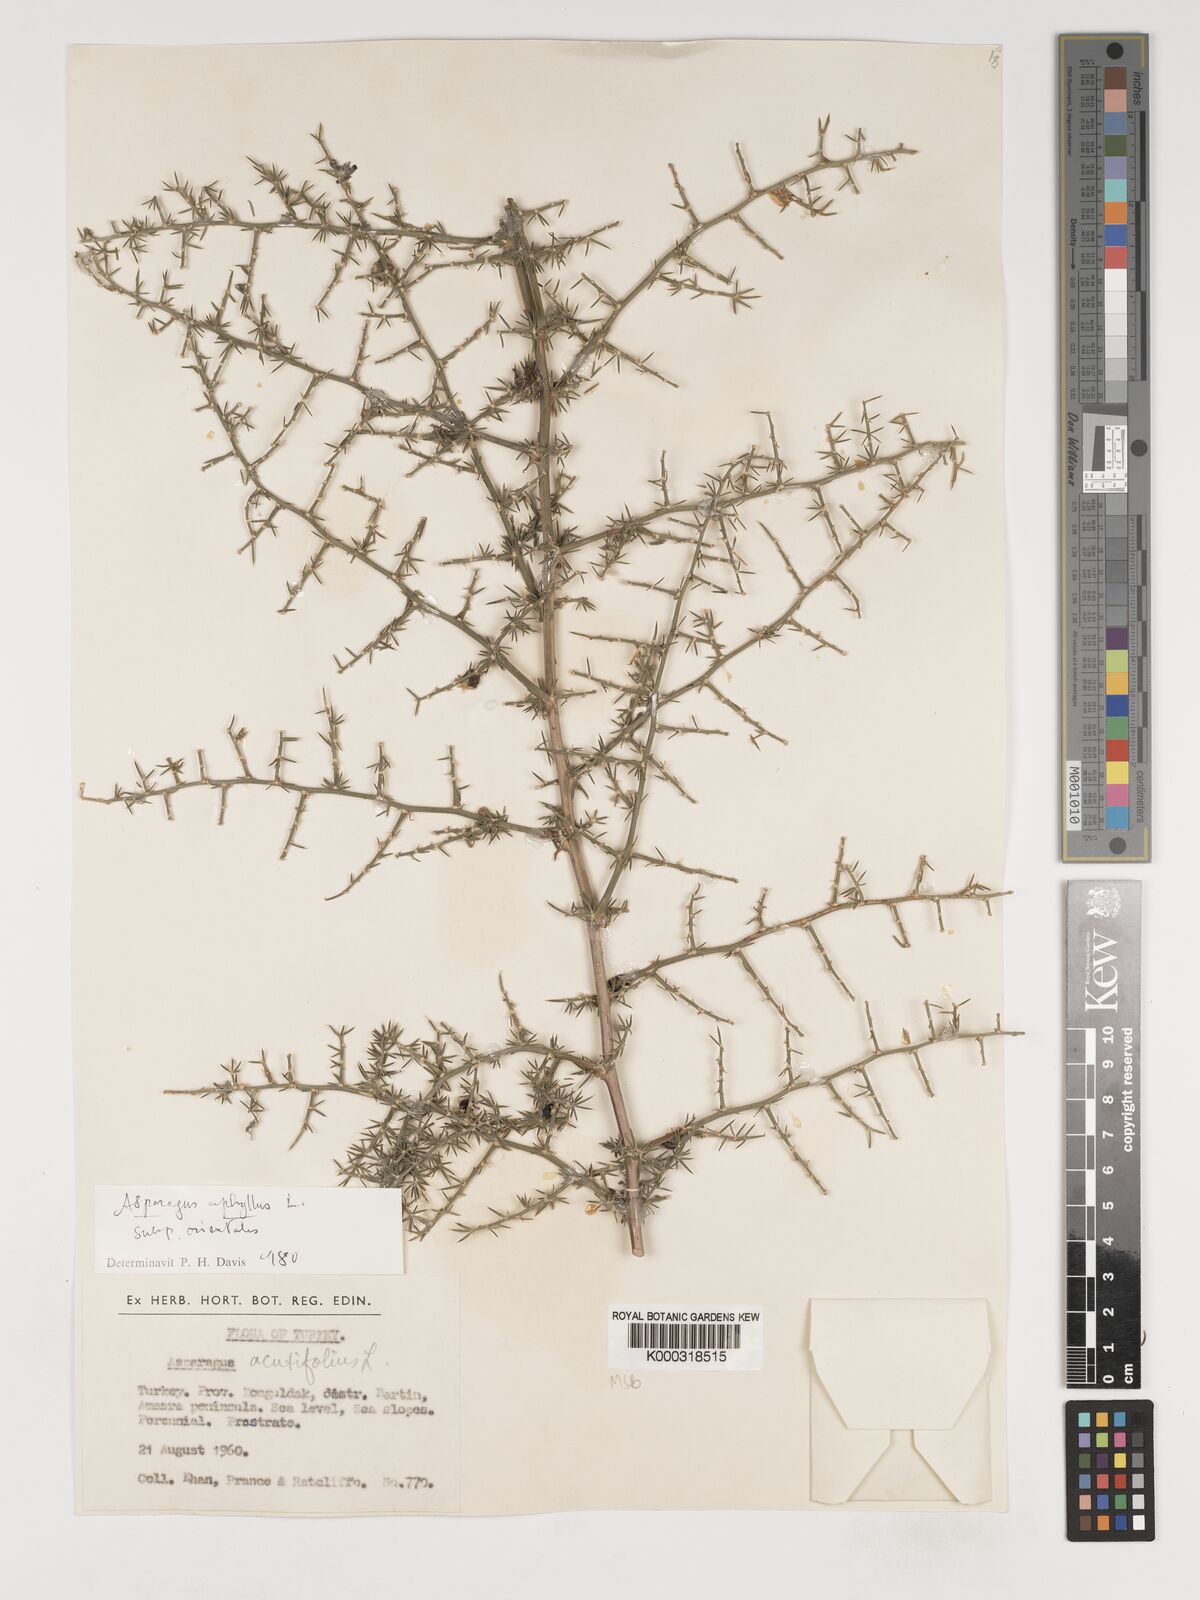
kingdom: Plantae
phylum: Tracheophyta
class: Liliopsida
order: Asparagales
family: Asparagaceae
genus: Asparagus
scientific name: Asparagus aphyllus
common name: Mediterranean asparagus
